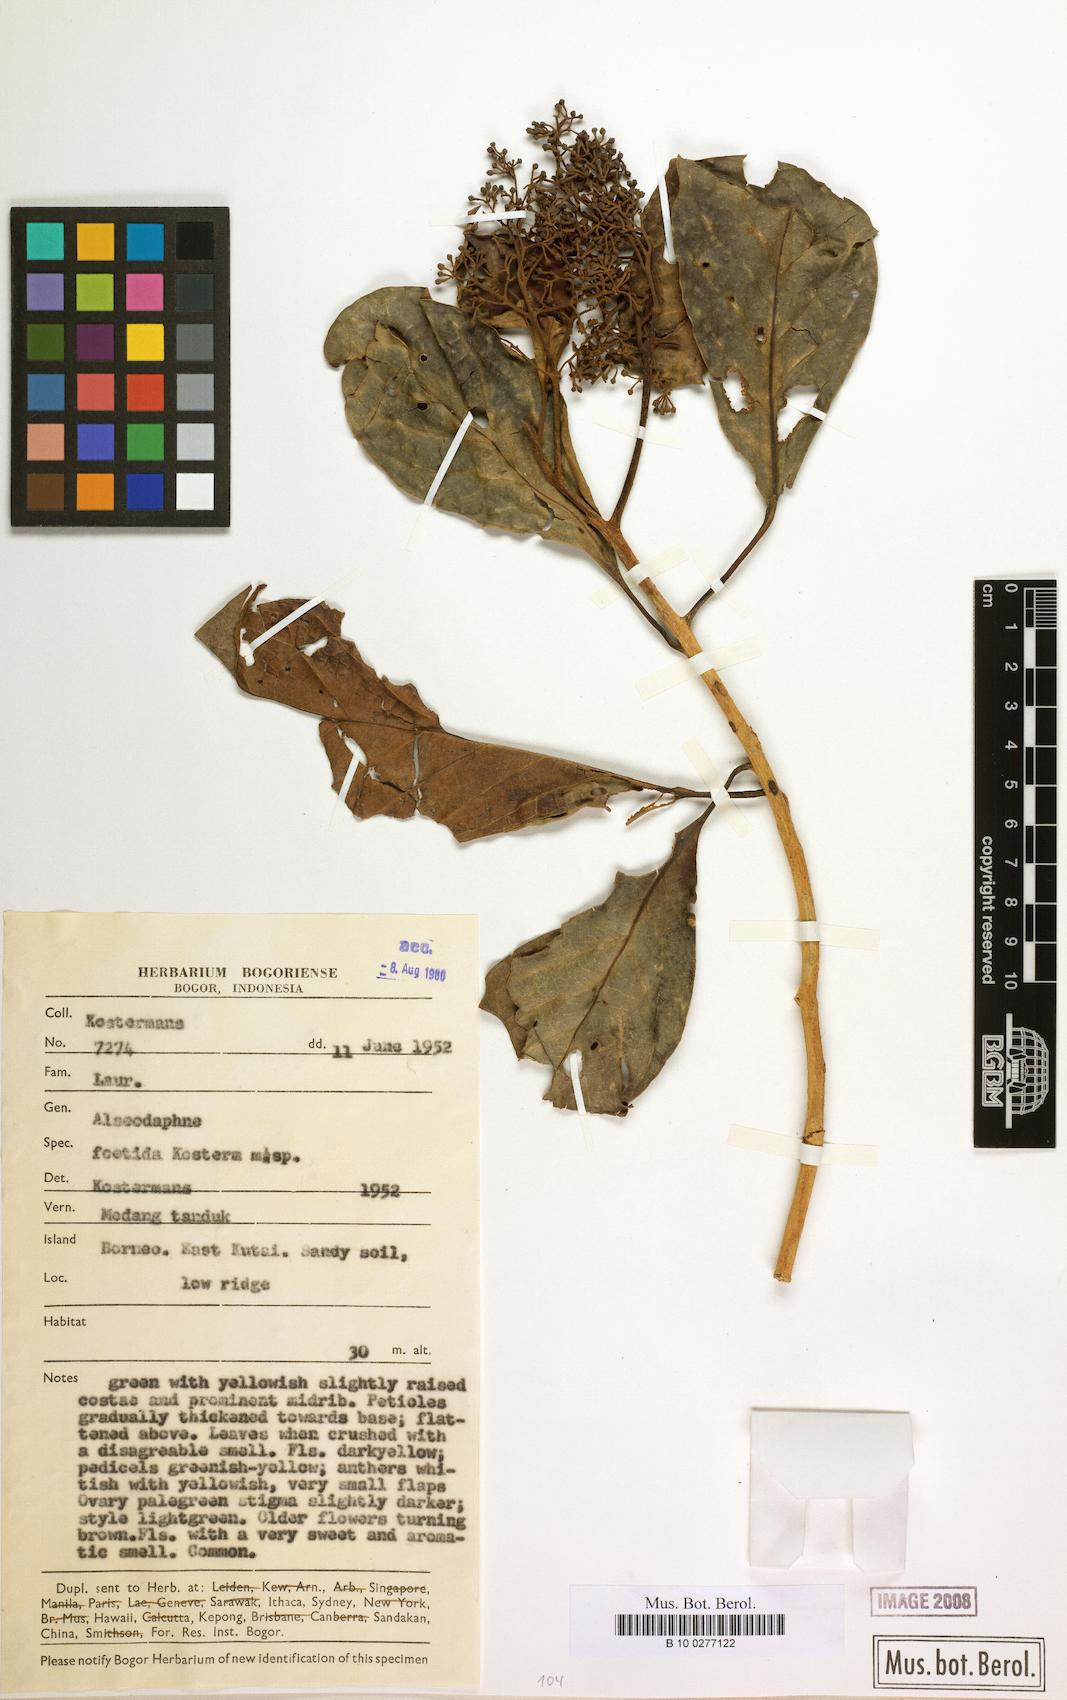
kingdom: Plantae
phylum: Tracheophyta
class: Magnoliopsida
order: Laurales
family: Lauraceae
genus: Nothaphoebe
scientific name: Nothaphoebe foetida
